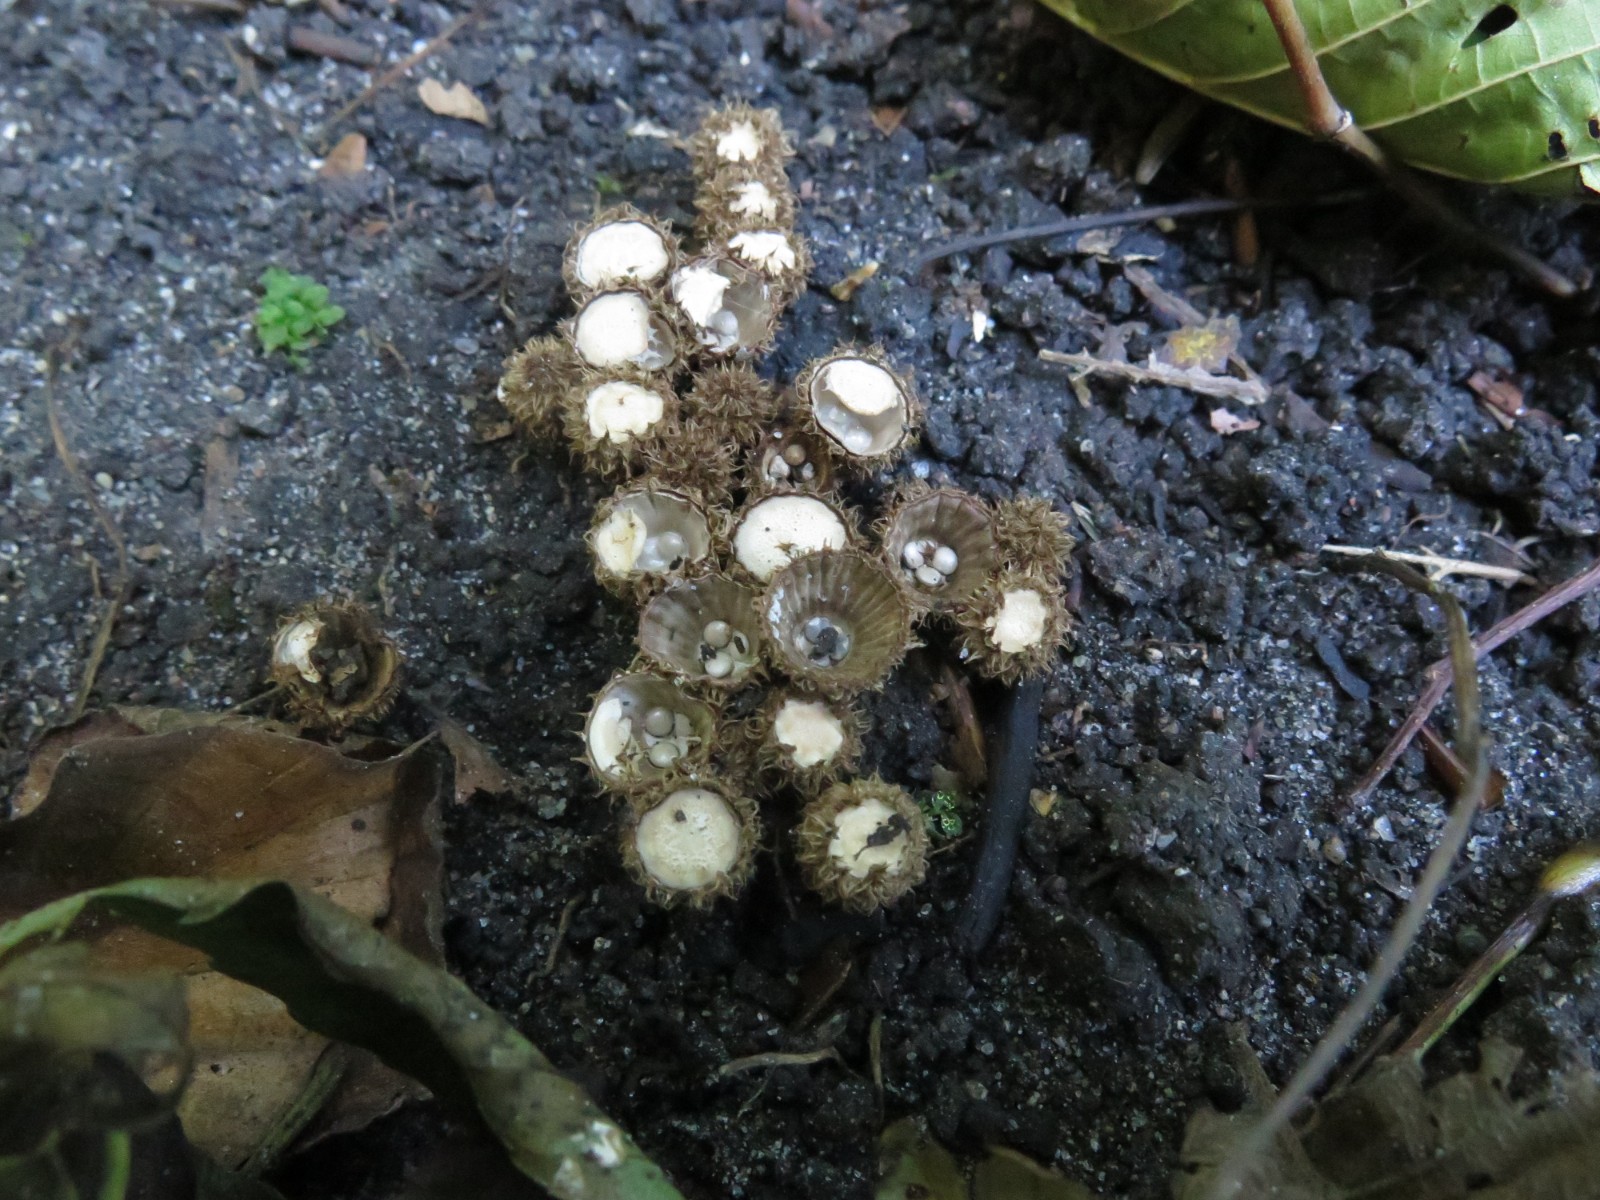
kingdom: Fungi
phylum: Basidiomycota
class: Agaricomycetes
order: Agaricales
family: Agaricaceae
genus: Cyathus
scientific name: Cyathus striatus
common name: stribet redesvamp
